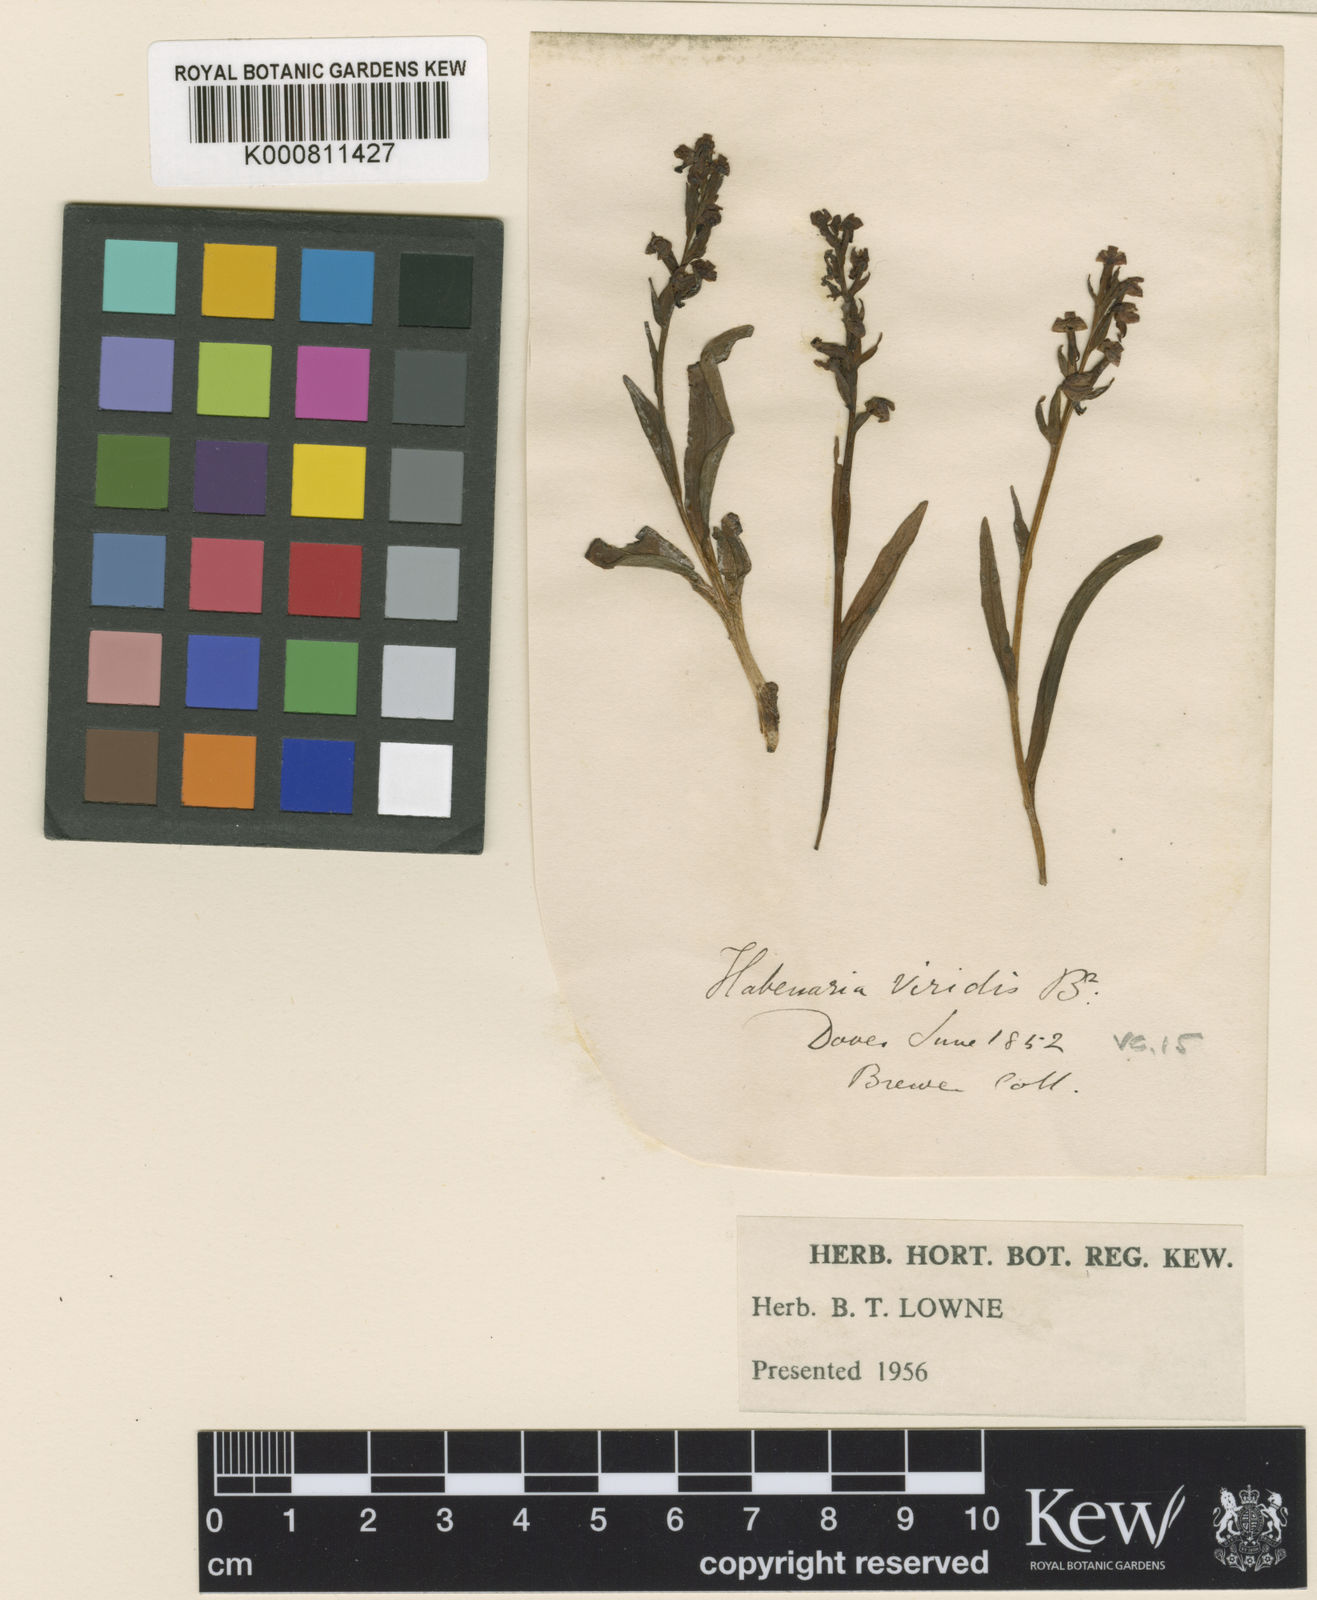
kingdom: Plantae
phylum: Tracheophyta
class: Liliopsida
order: Asparagales
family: Orchidaceae
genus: Dactylorhiza
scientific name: Dactylorhiza viridis
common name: Longbract frog orchid
